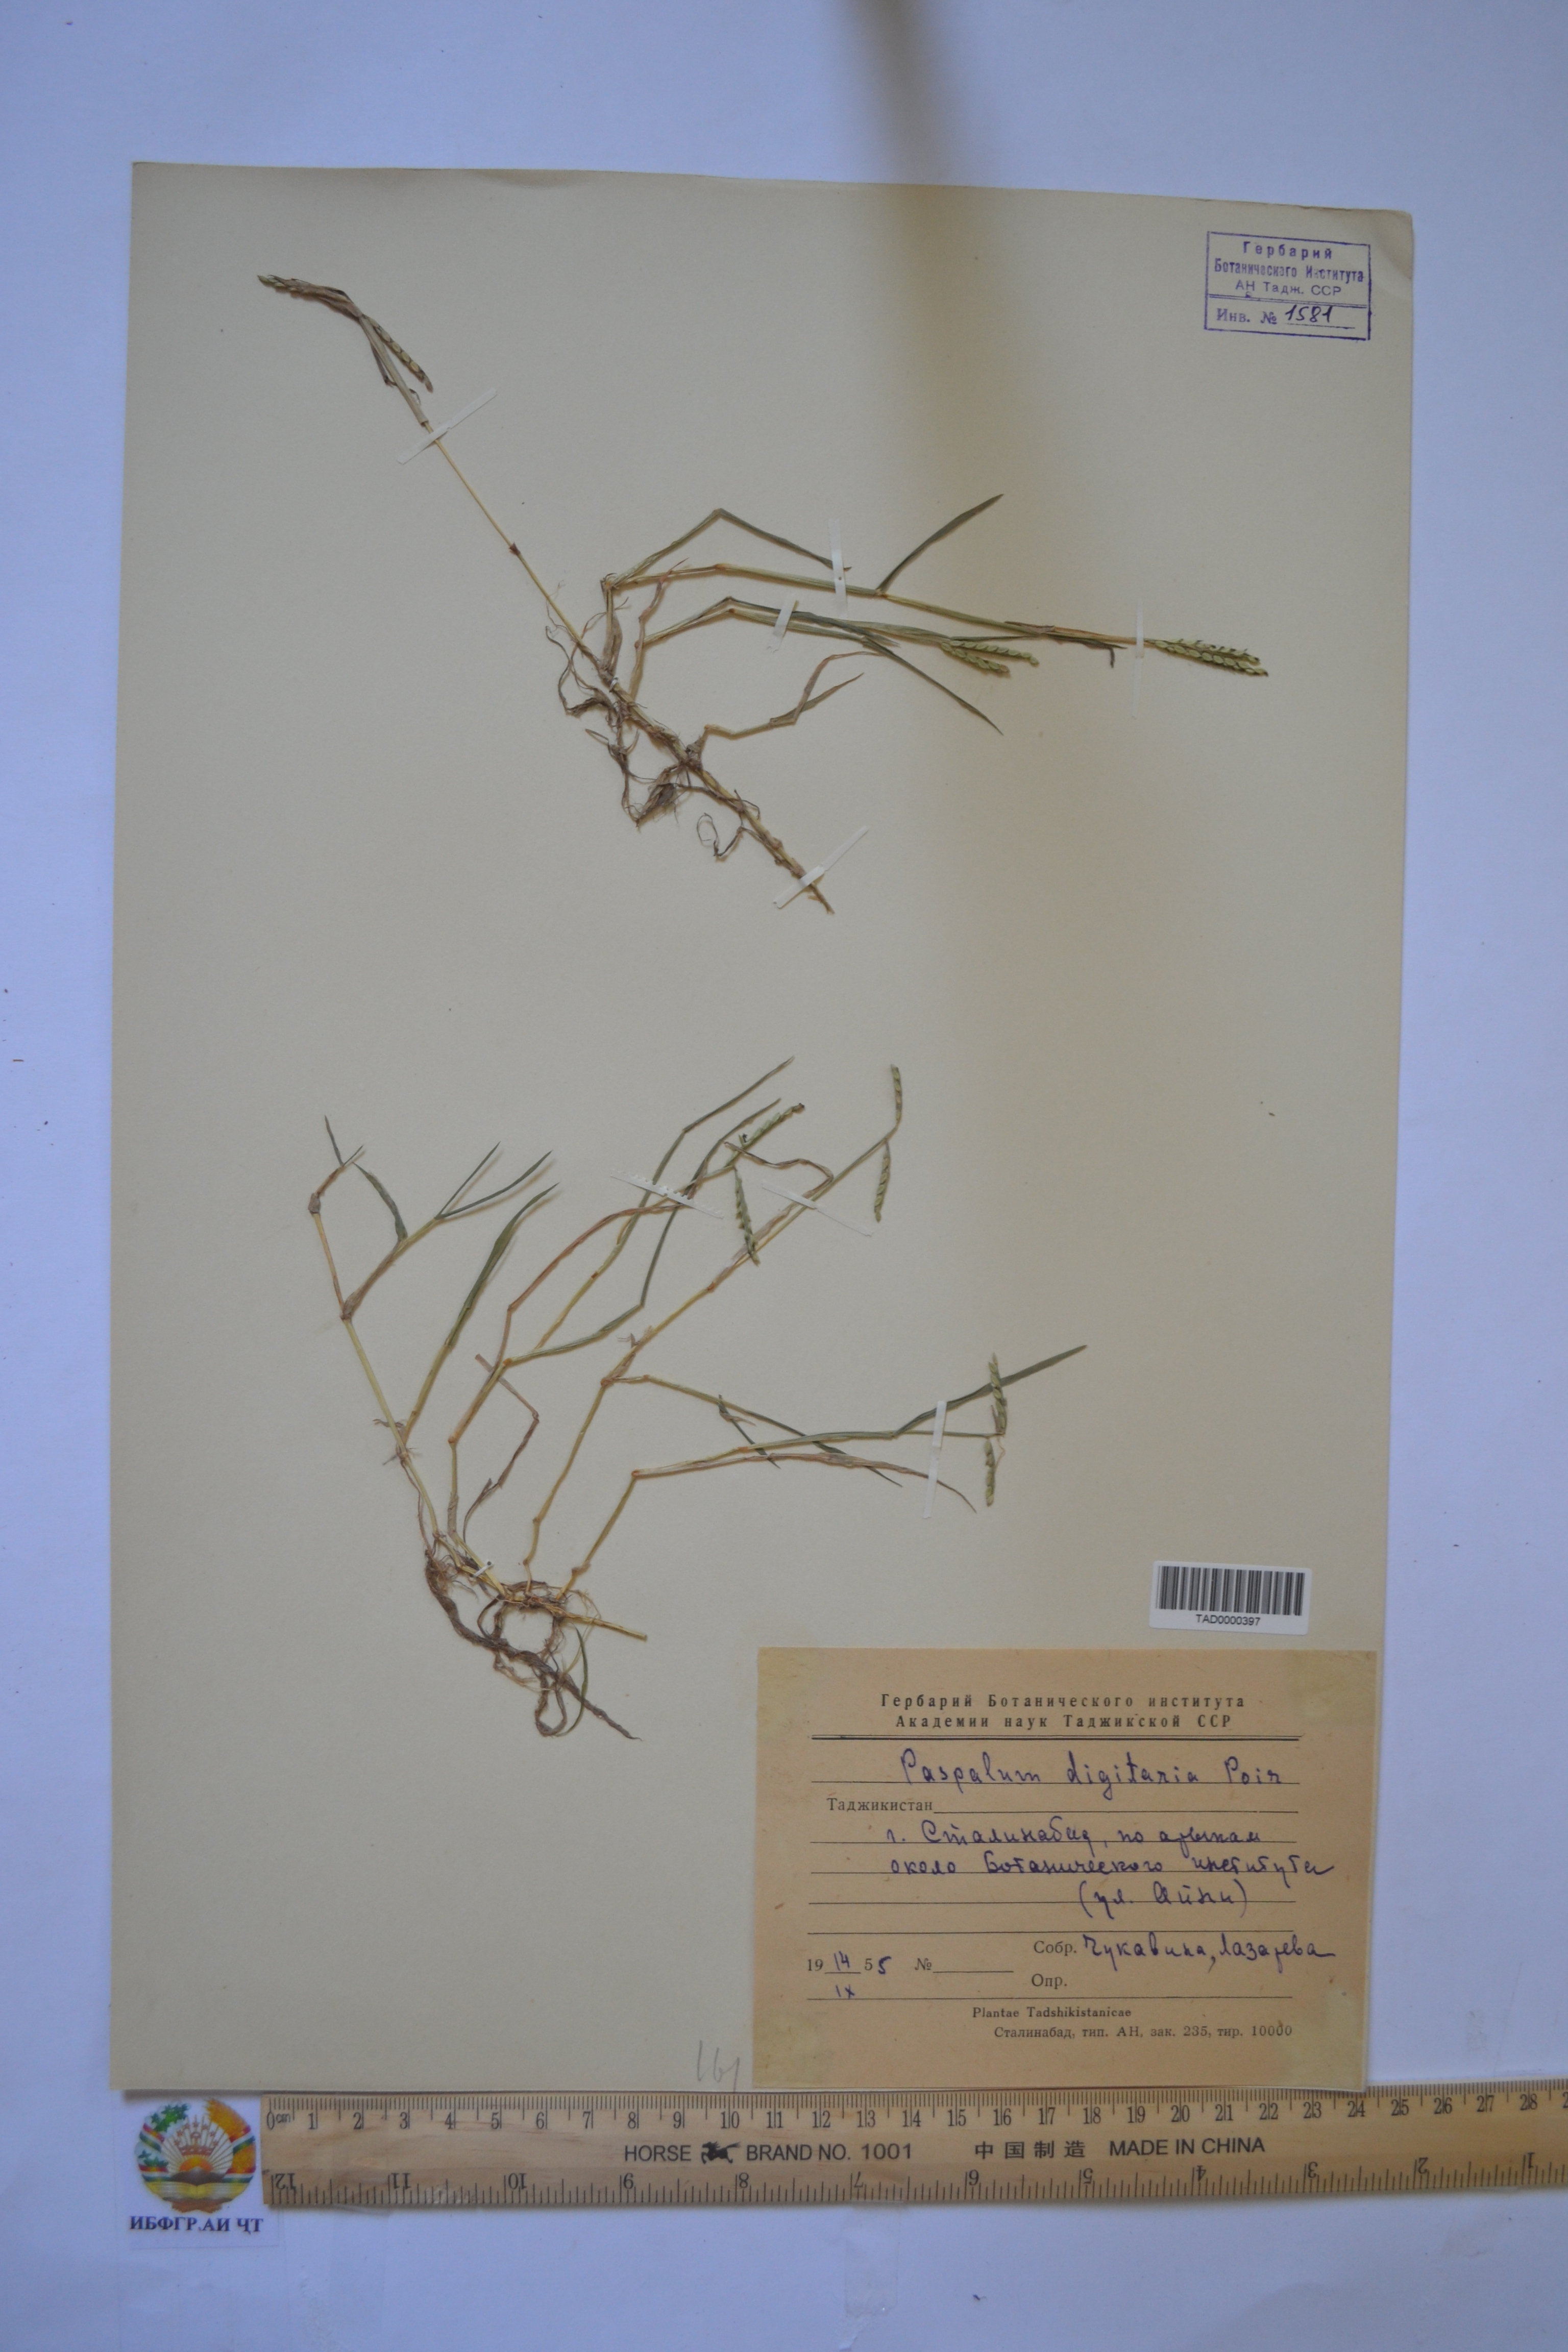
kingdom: Plantae
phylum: Tracheophyta
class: Liliopsida
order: Poales
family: Poaceae
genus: Paspalum
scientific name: Paspalum distichum
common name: Knotgrass
